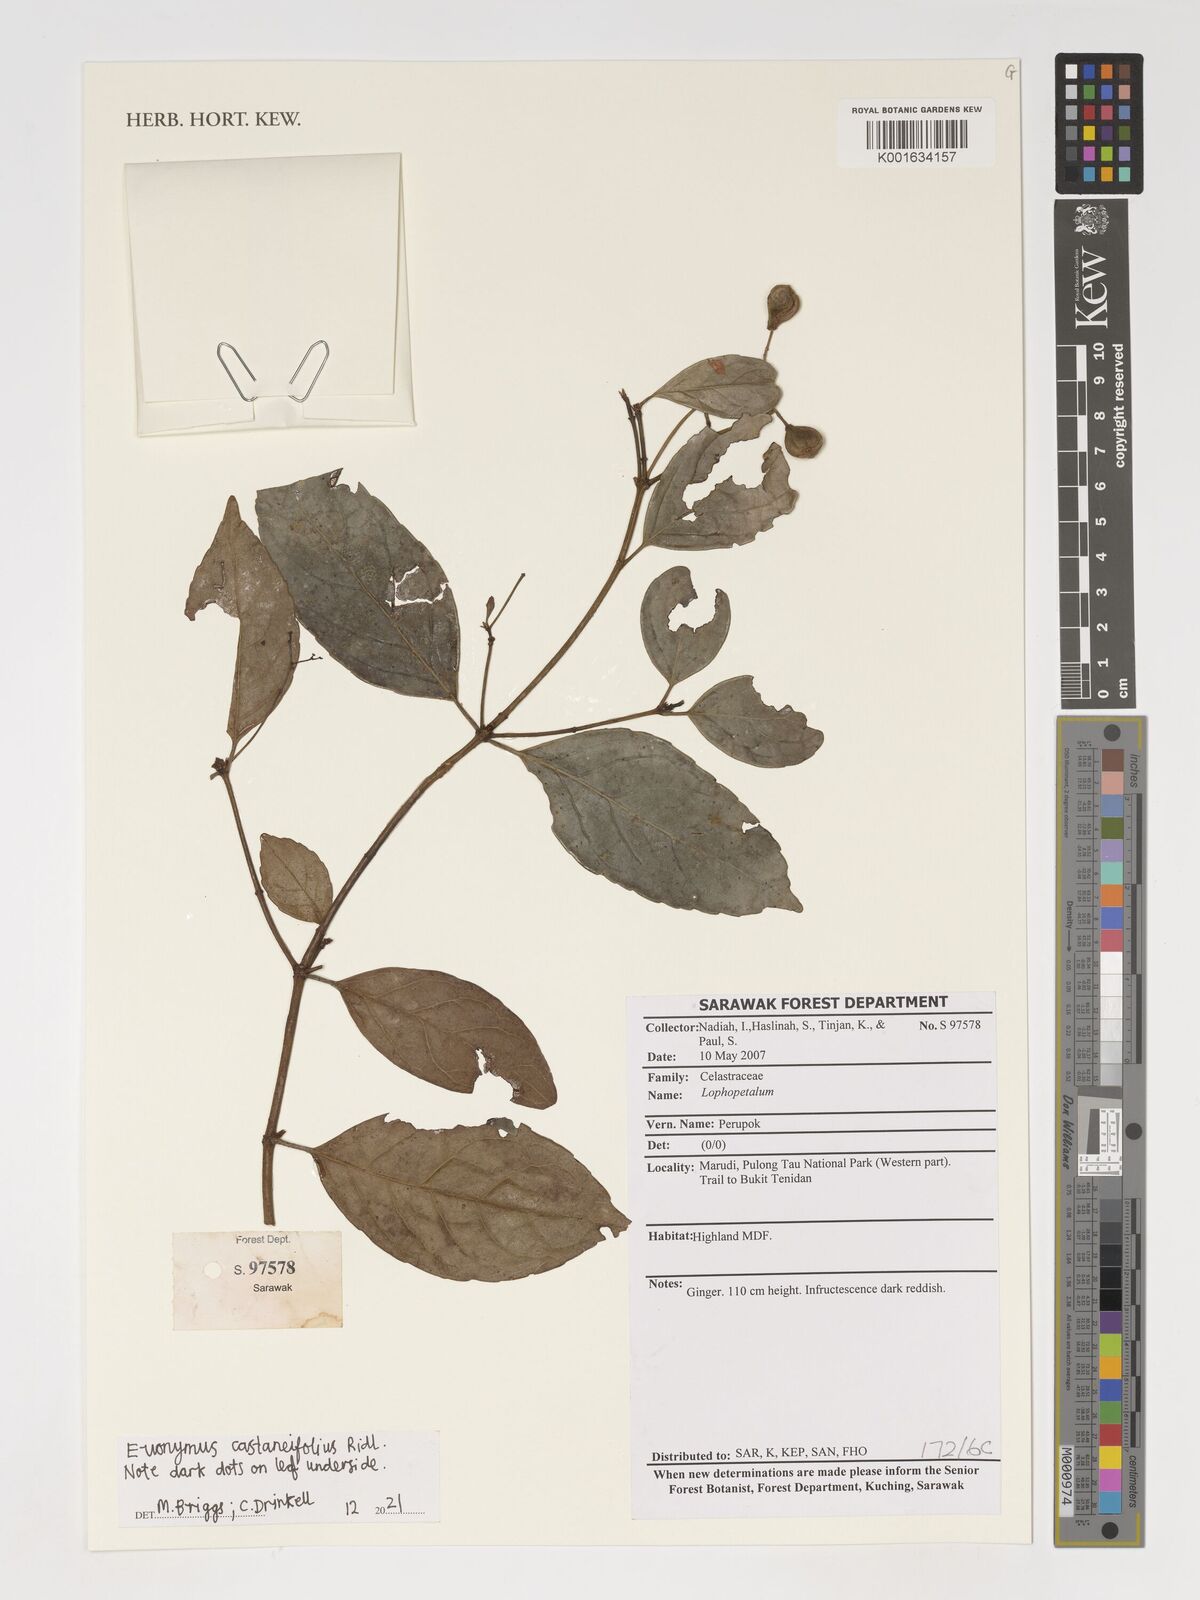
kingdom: Plantae
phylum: Tracheophyta
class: Magnoliopsida
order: Celastrales
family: Celastraceae
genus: Euonymus
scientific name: Euonymus castaneifolius
